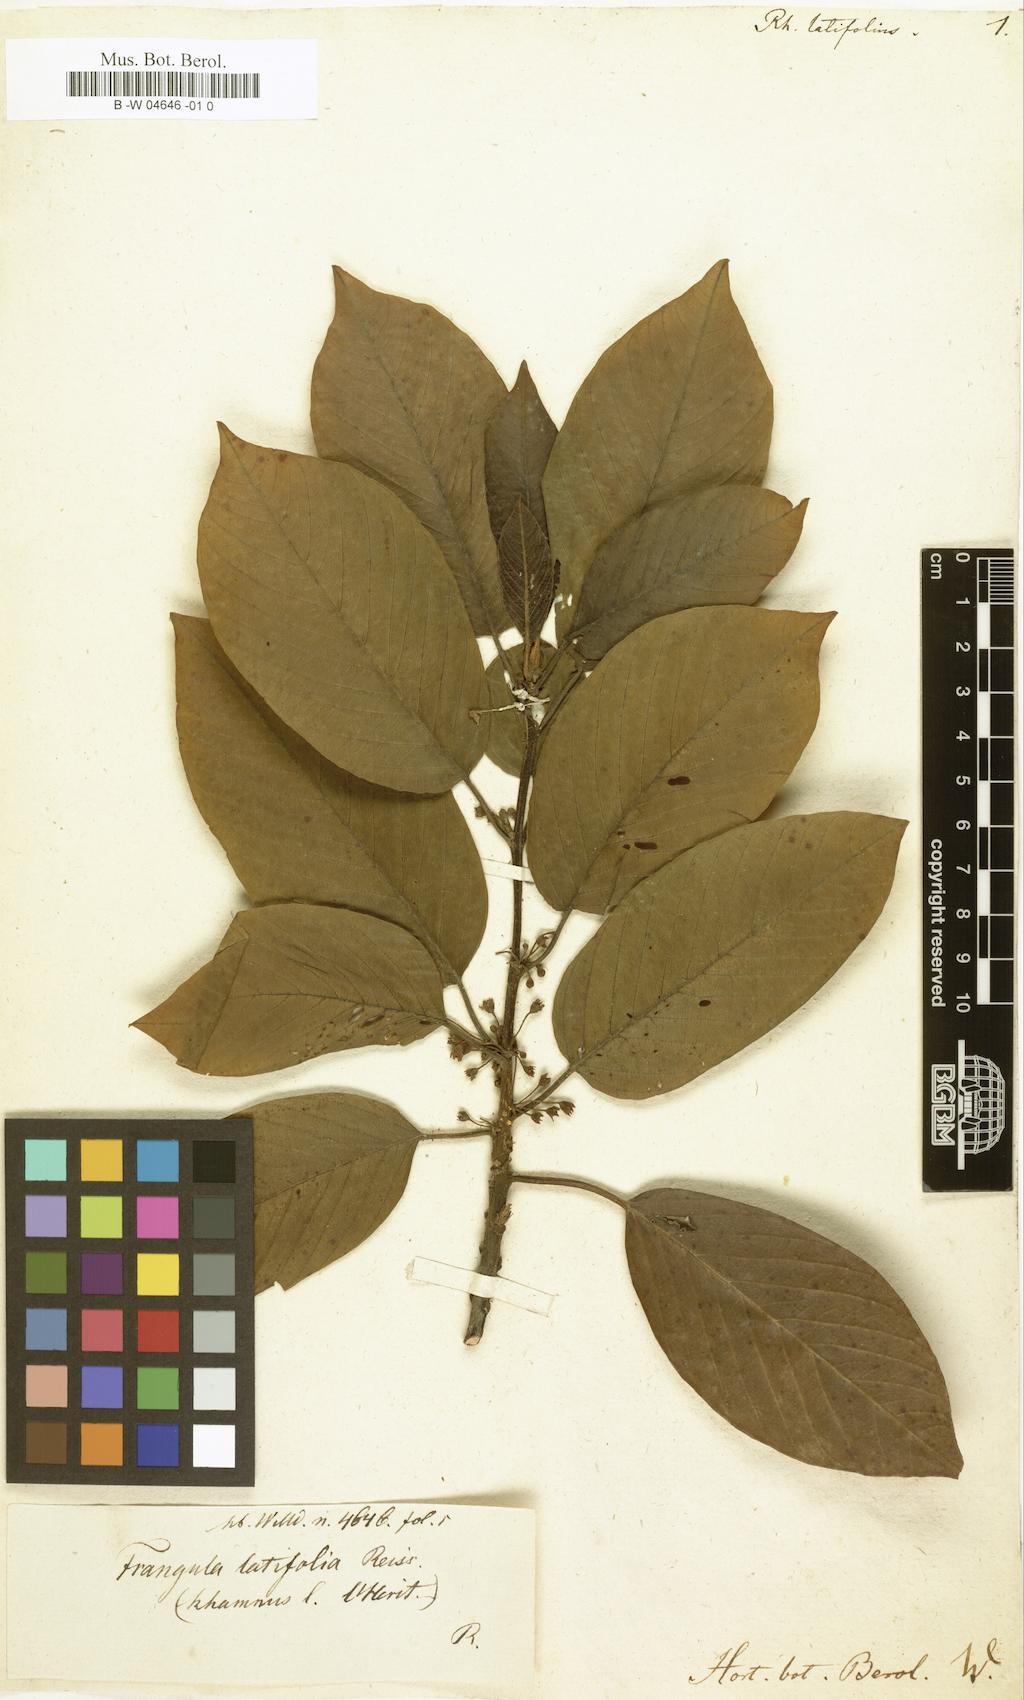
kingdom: Plantae
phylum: Tracheophyta
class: Magnoliopsida
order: Rosales
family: Rhamnaceae
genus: Frangula
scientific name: Frangula azorica
